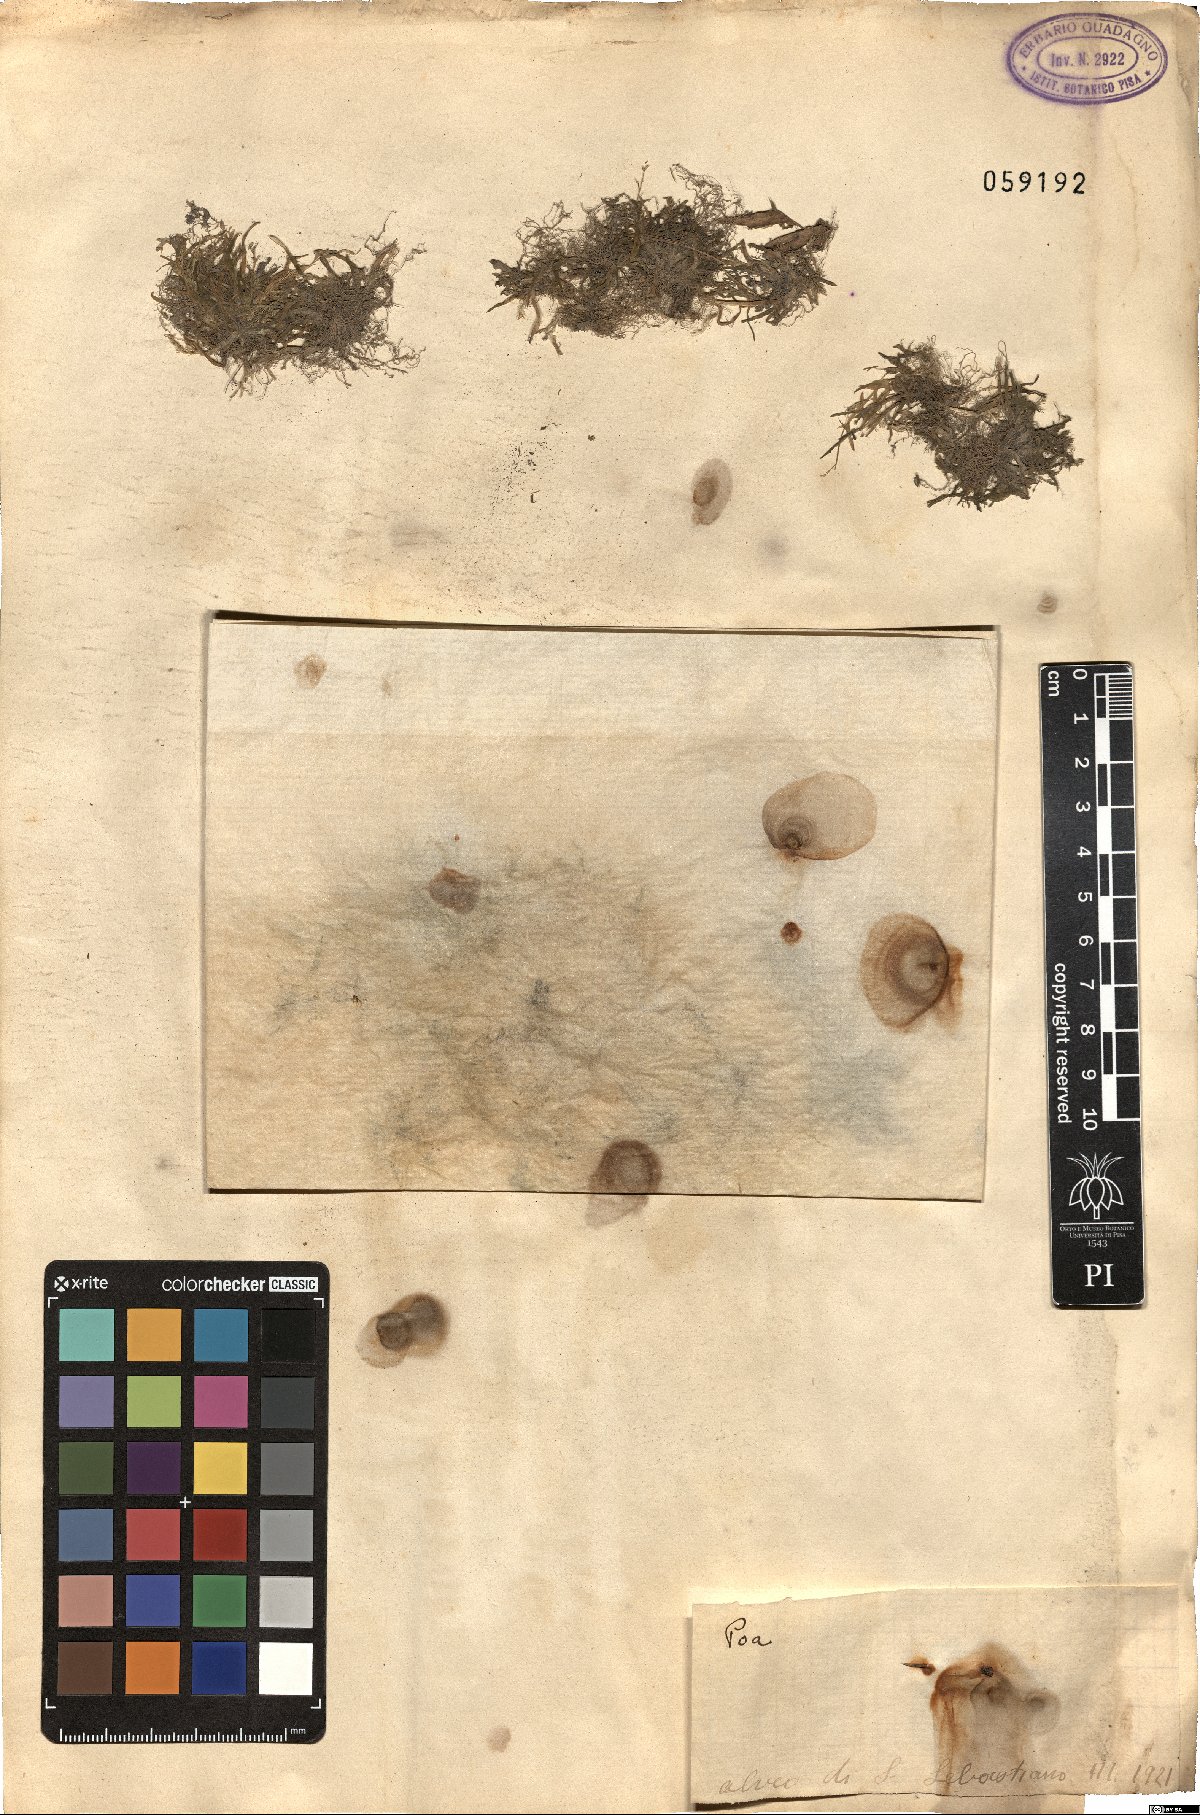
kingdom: Plantae
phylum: Tracheophyta
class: Liliopsida
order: Poales
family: Poaceae
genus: Poa
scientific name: Poa
